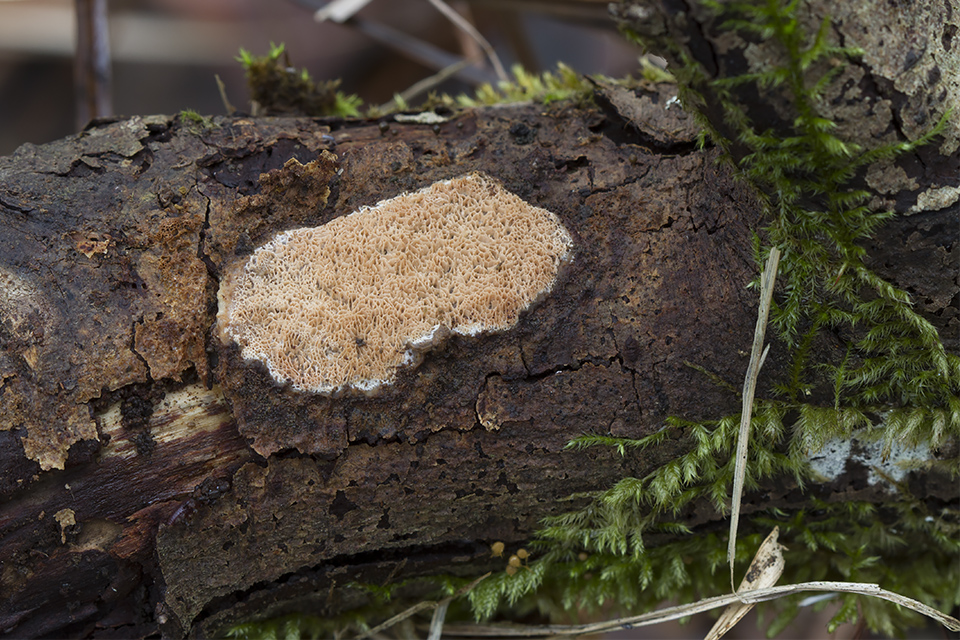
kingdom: Fungi
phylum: Basidiomycota
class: Agaricomycetes
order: Polyporales
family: Irpicaceae
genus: Resiniporus
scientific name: Resiniporus resinascens
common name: trist pastelporesvamp
